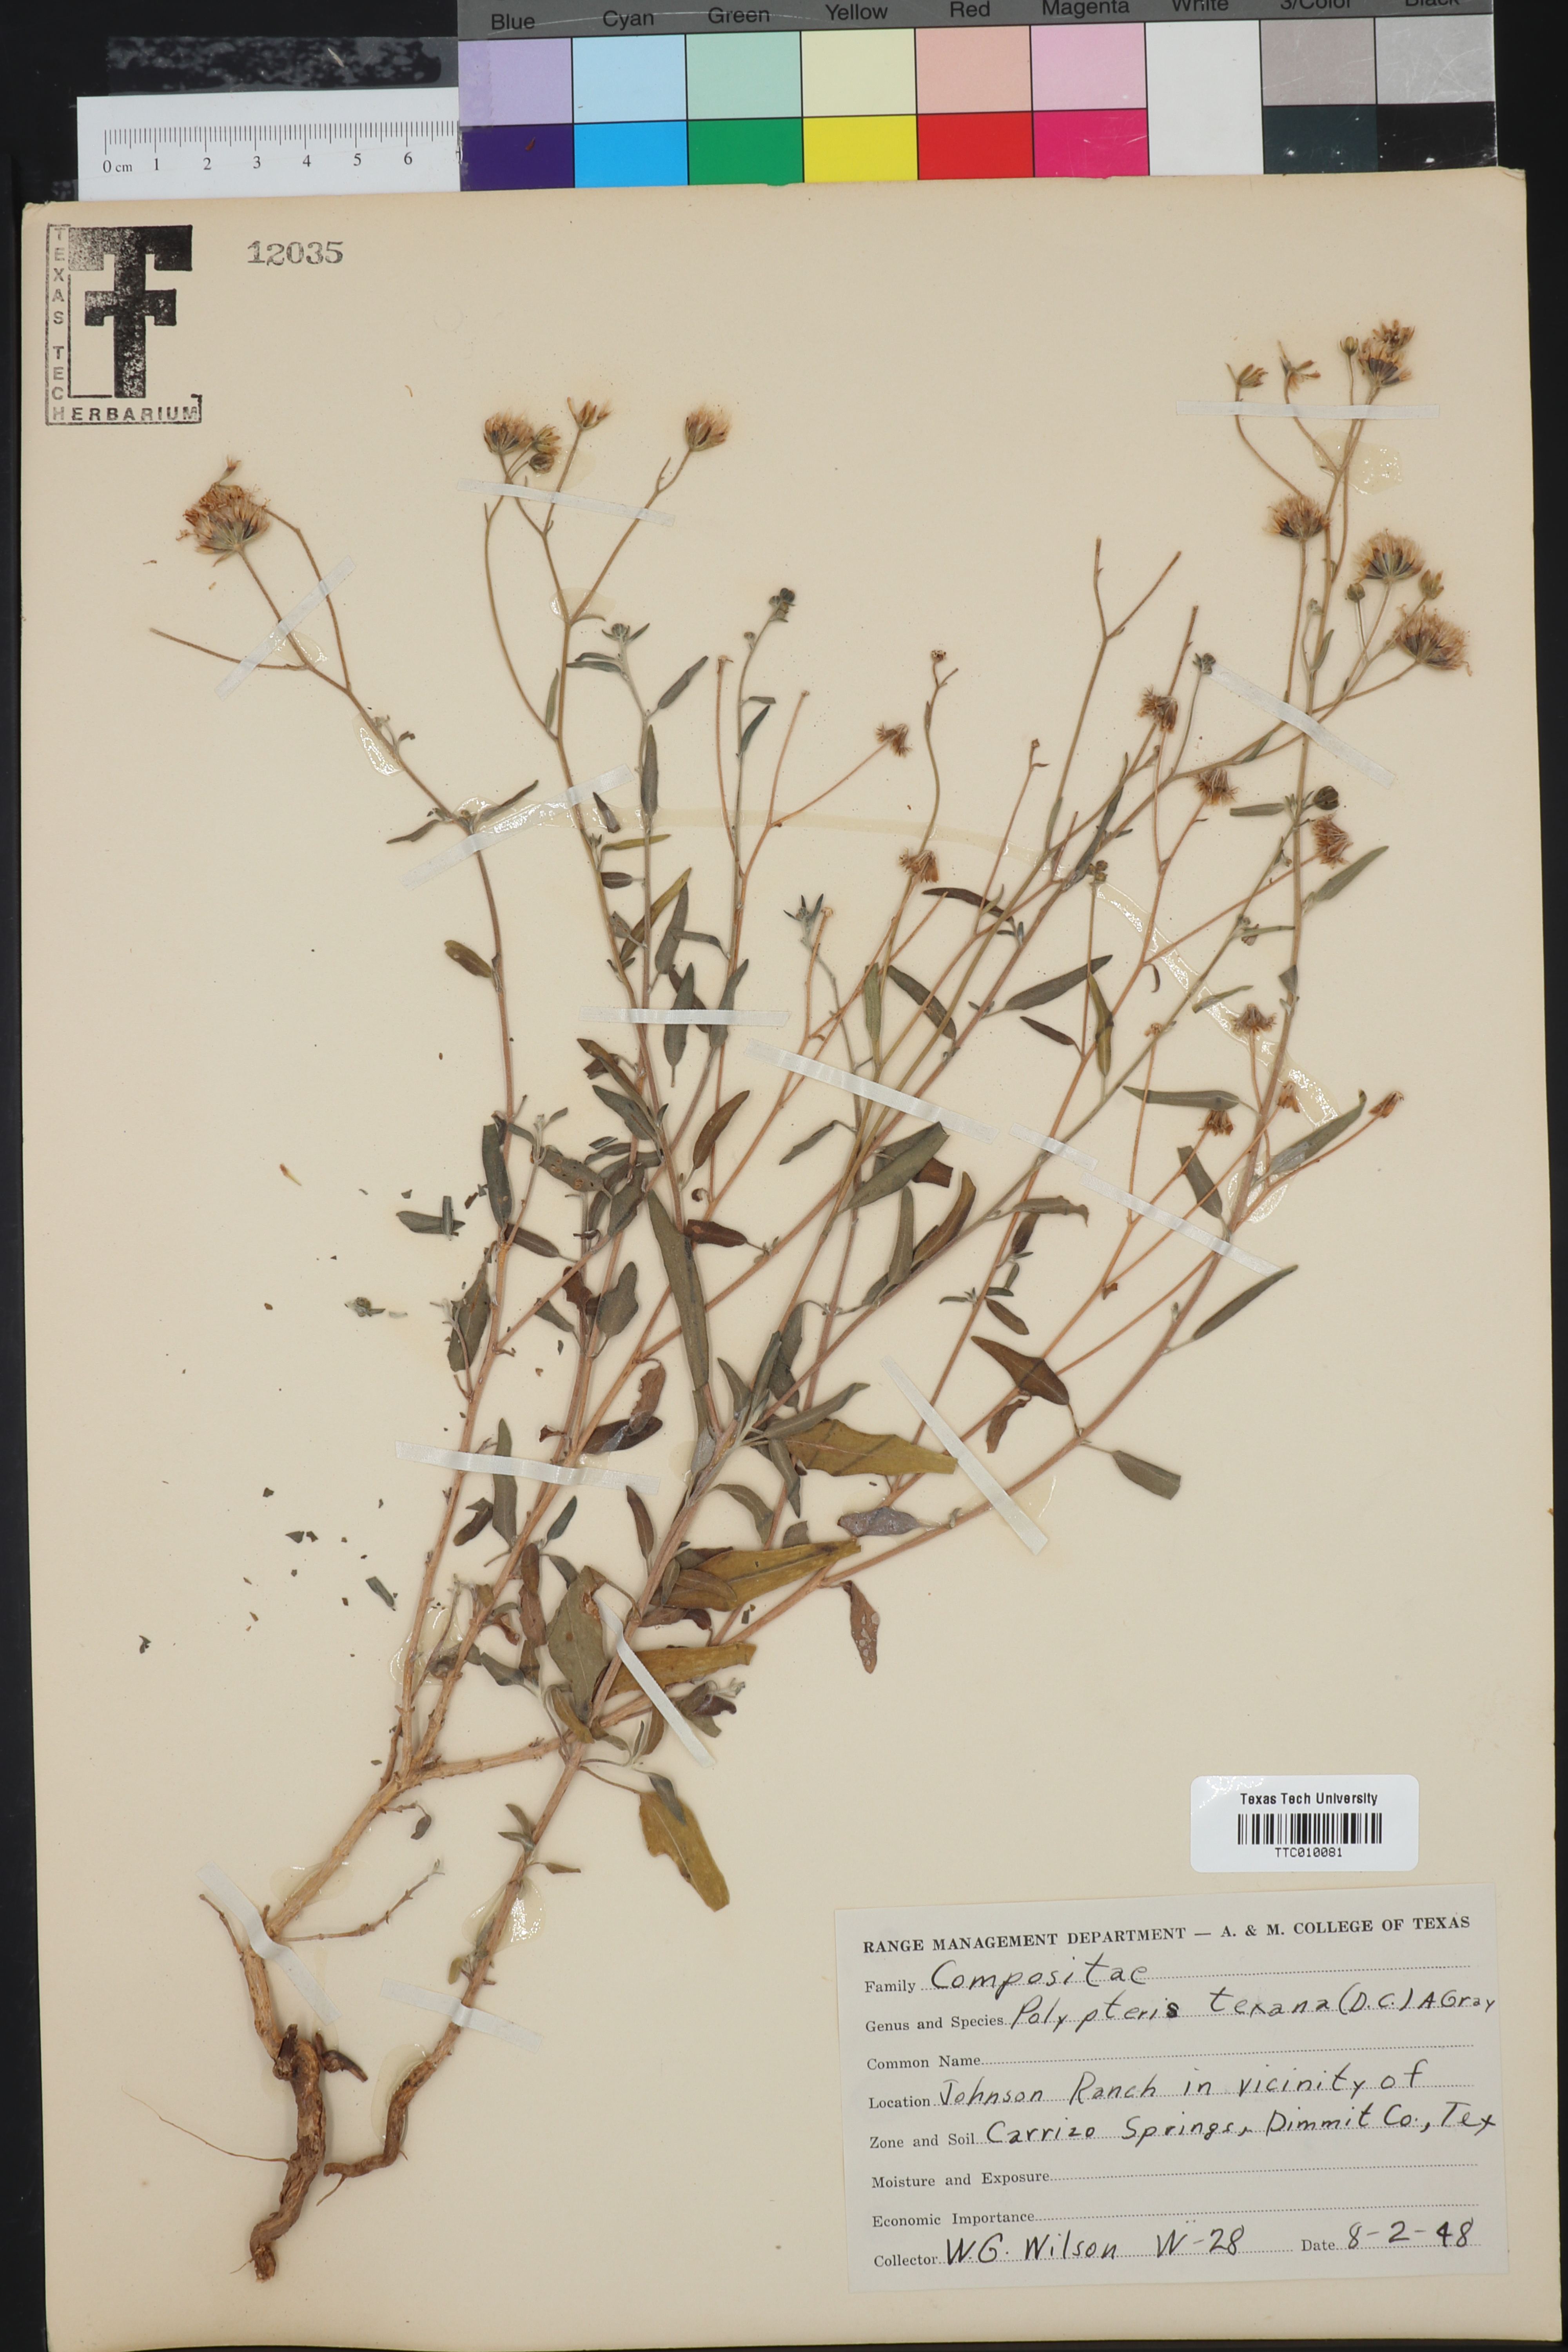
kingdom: Plantae
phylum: Tracheophyta
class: Magnoliopsida
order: Asterales
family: Asteraceae
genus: Palafoxia
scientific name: Palafoxia texana
